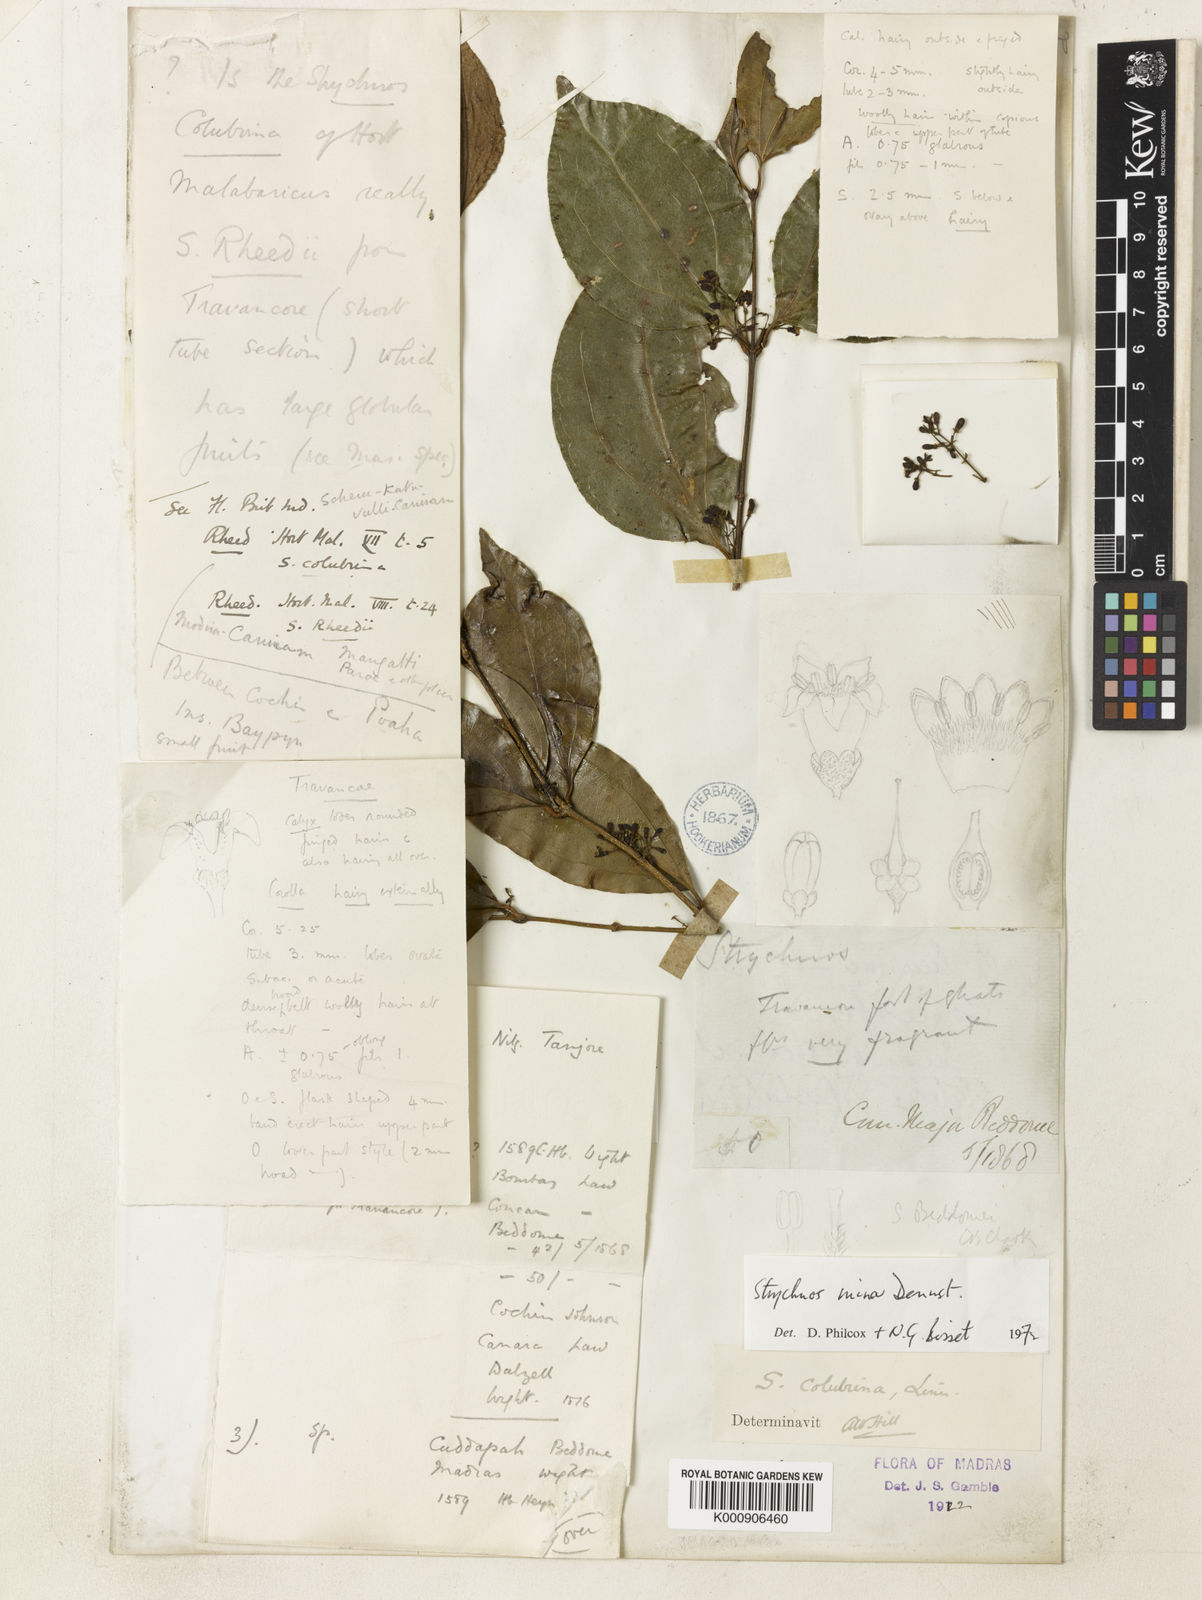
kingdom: Plantae
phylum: Tracheophyta
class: Magnoliopsida
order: Gentianales
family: Loganiaceae
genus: Strychnos
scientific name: Strychnos minor
